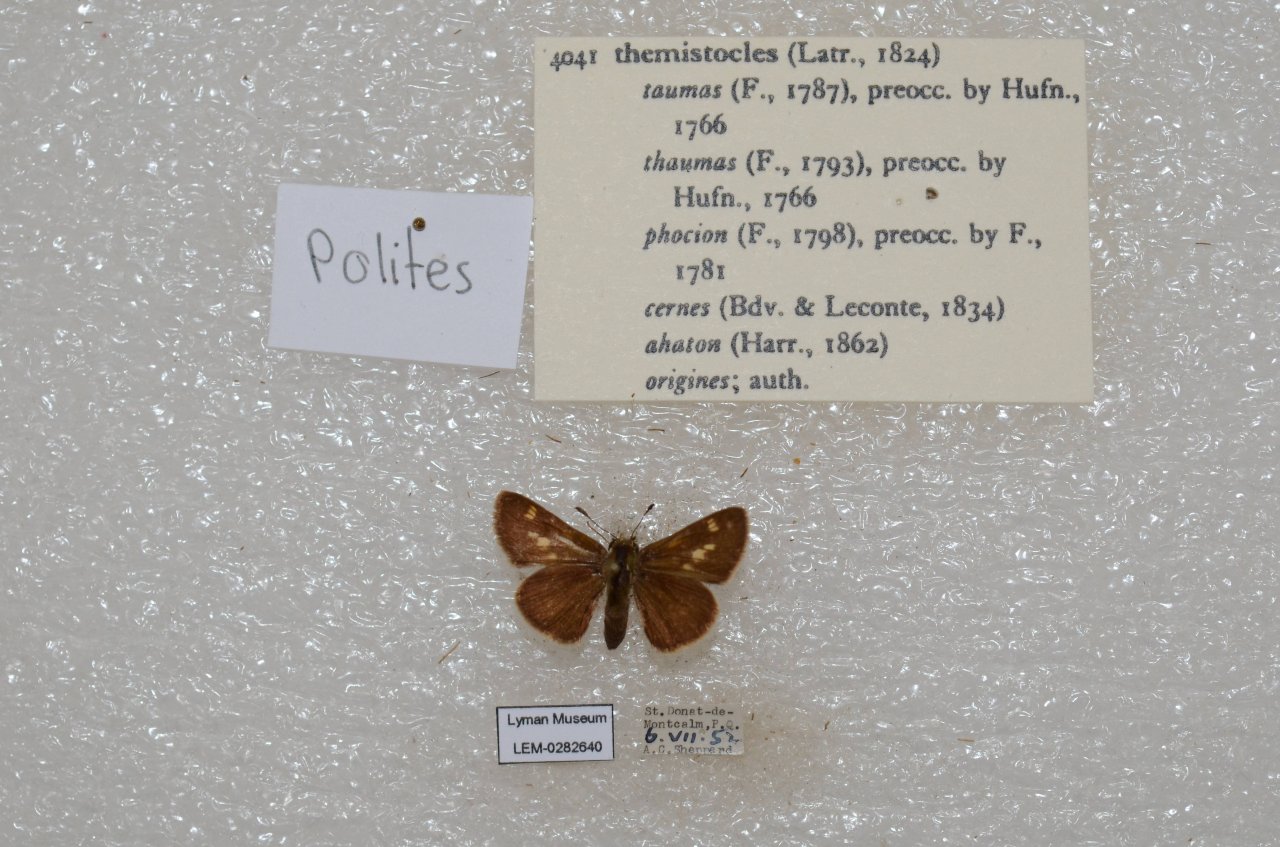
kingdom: Animalia
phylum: Arthropoda
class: Insecta
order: Lepidoptera
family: Hesperiidae
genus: Polites
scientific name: Polites themistocles
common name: Tawny-edged Skipper
